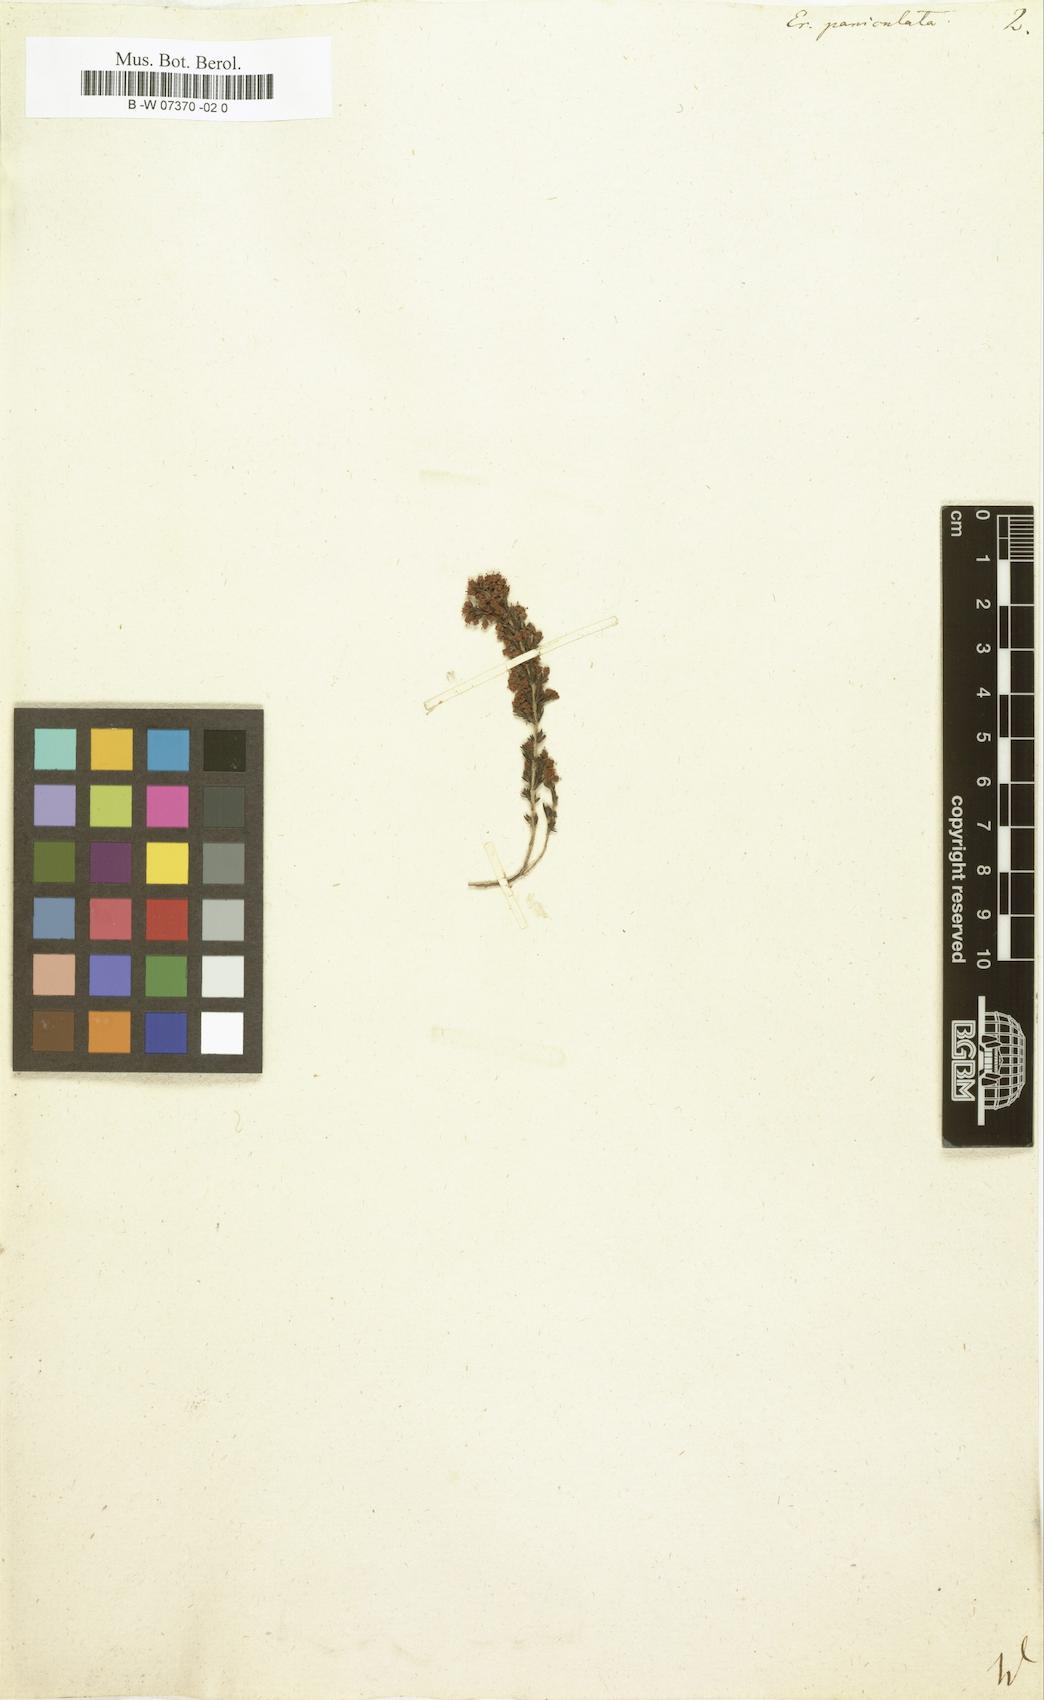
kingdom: Plantae
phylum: Tracheophyta
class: Magnoliopsida
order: Ericales
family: Ericaceae
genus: Erica
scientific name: Erica paniculata
